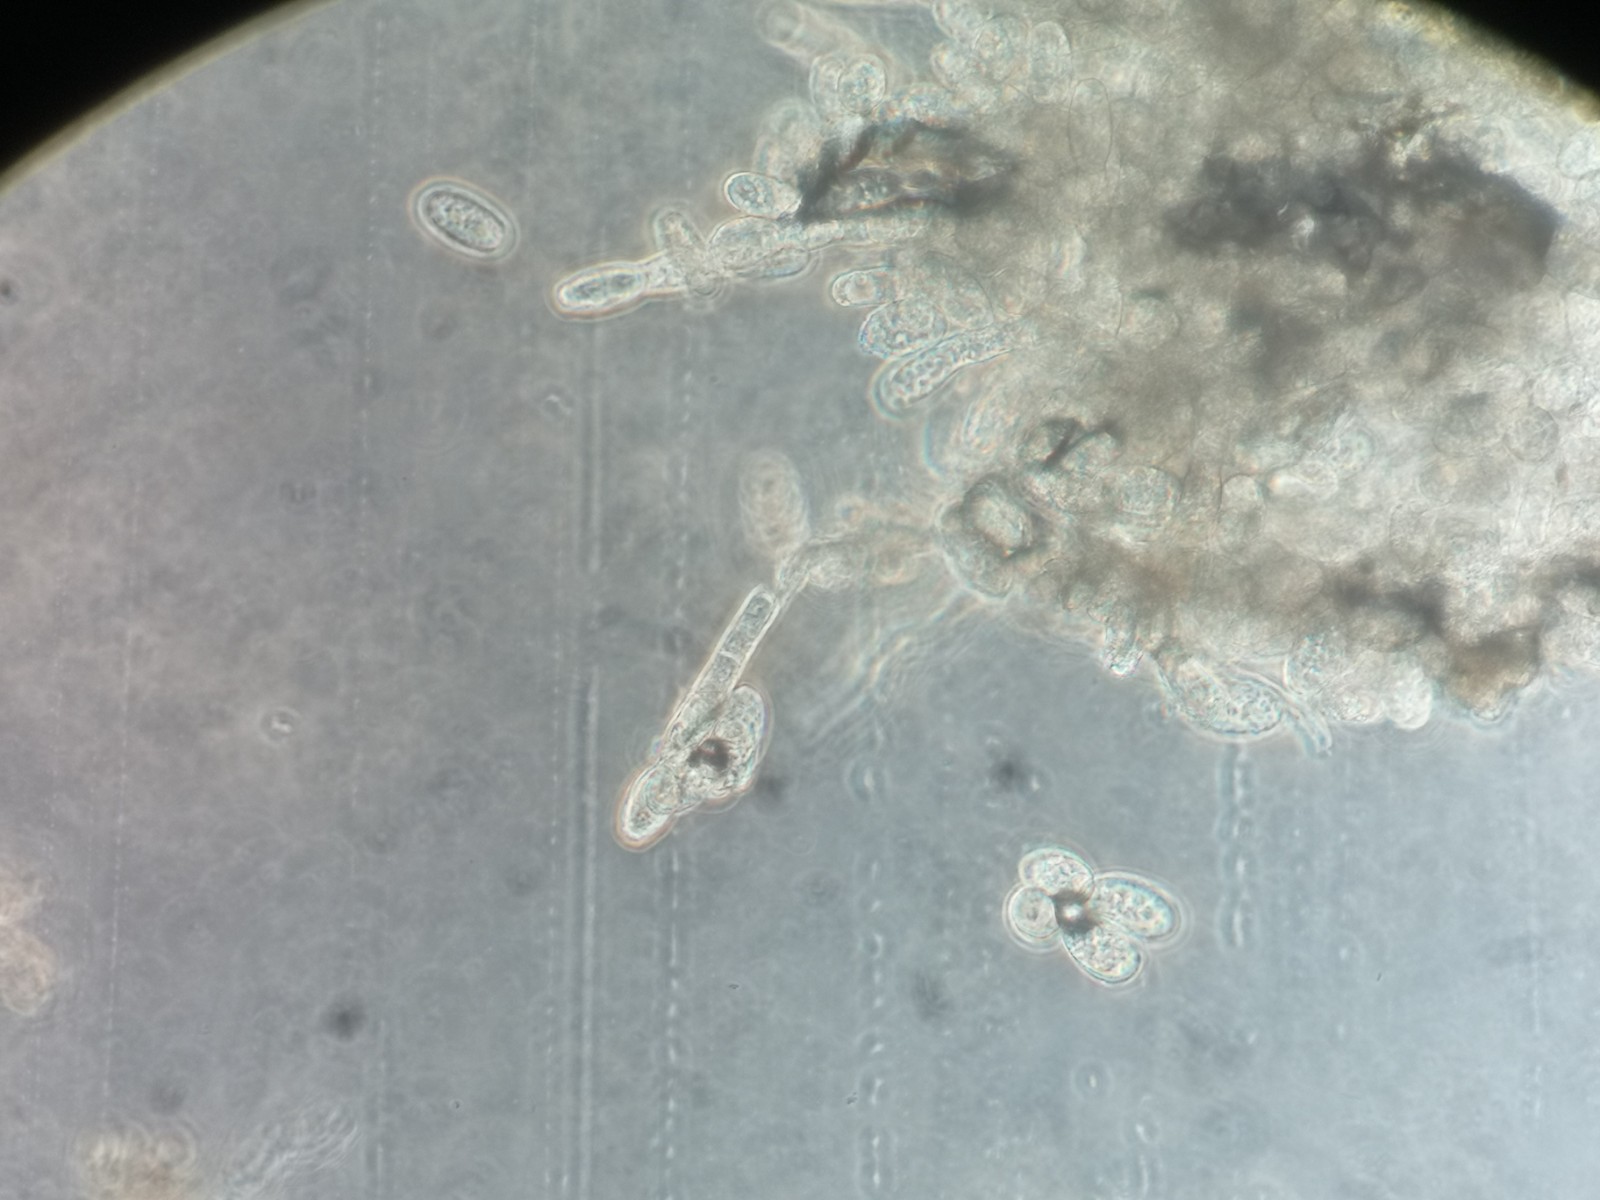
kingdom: Fungi
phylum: Ascomycota
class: Leotiomycetes
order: Helotiales
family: Erysiphaceae
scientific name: Erysiphaceae
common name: meldugfamilien
